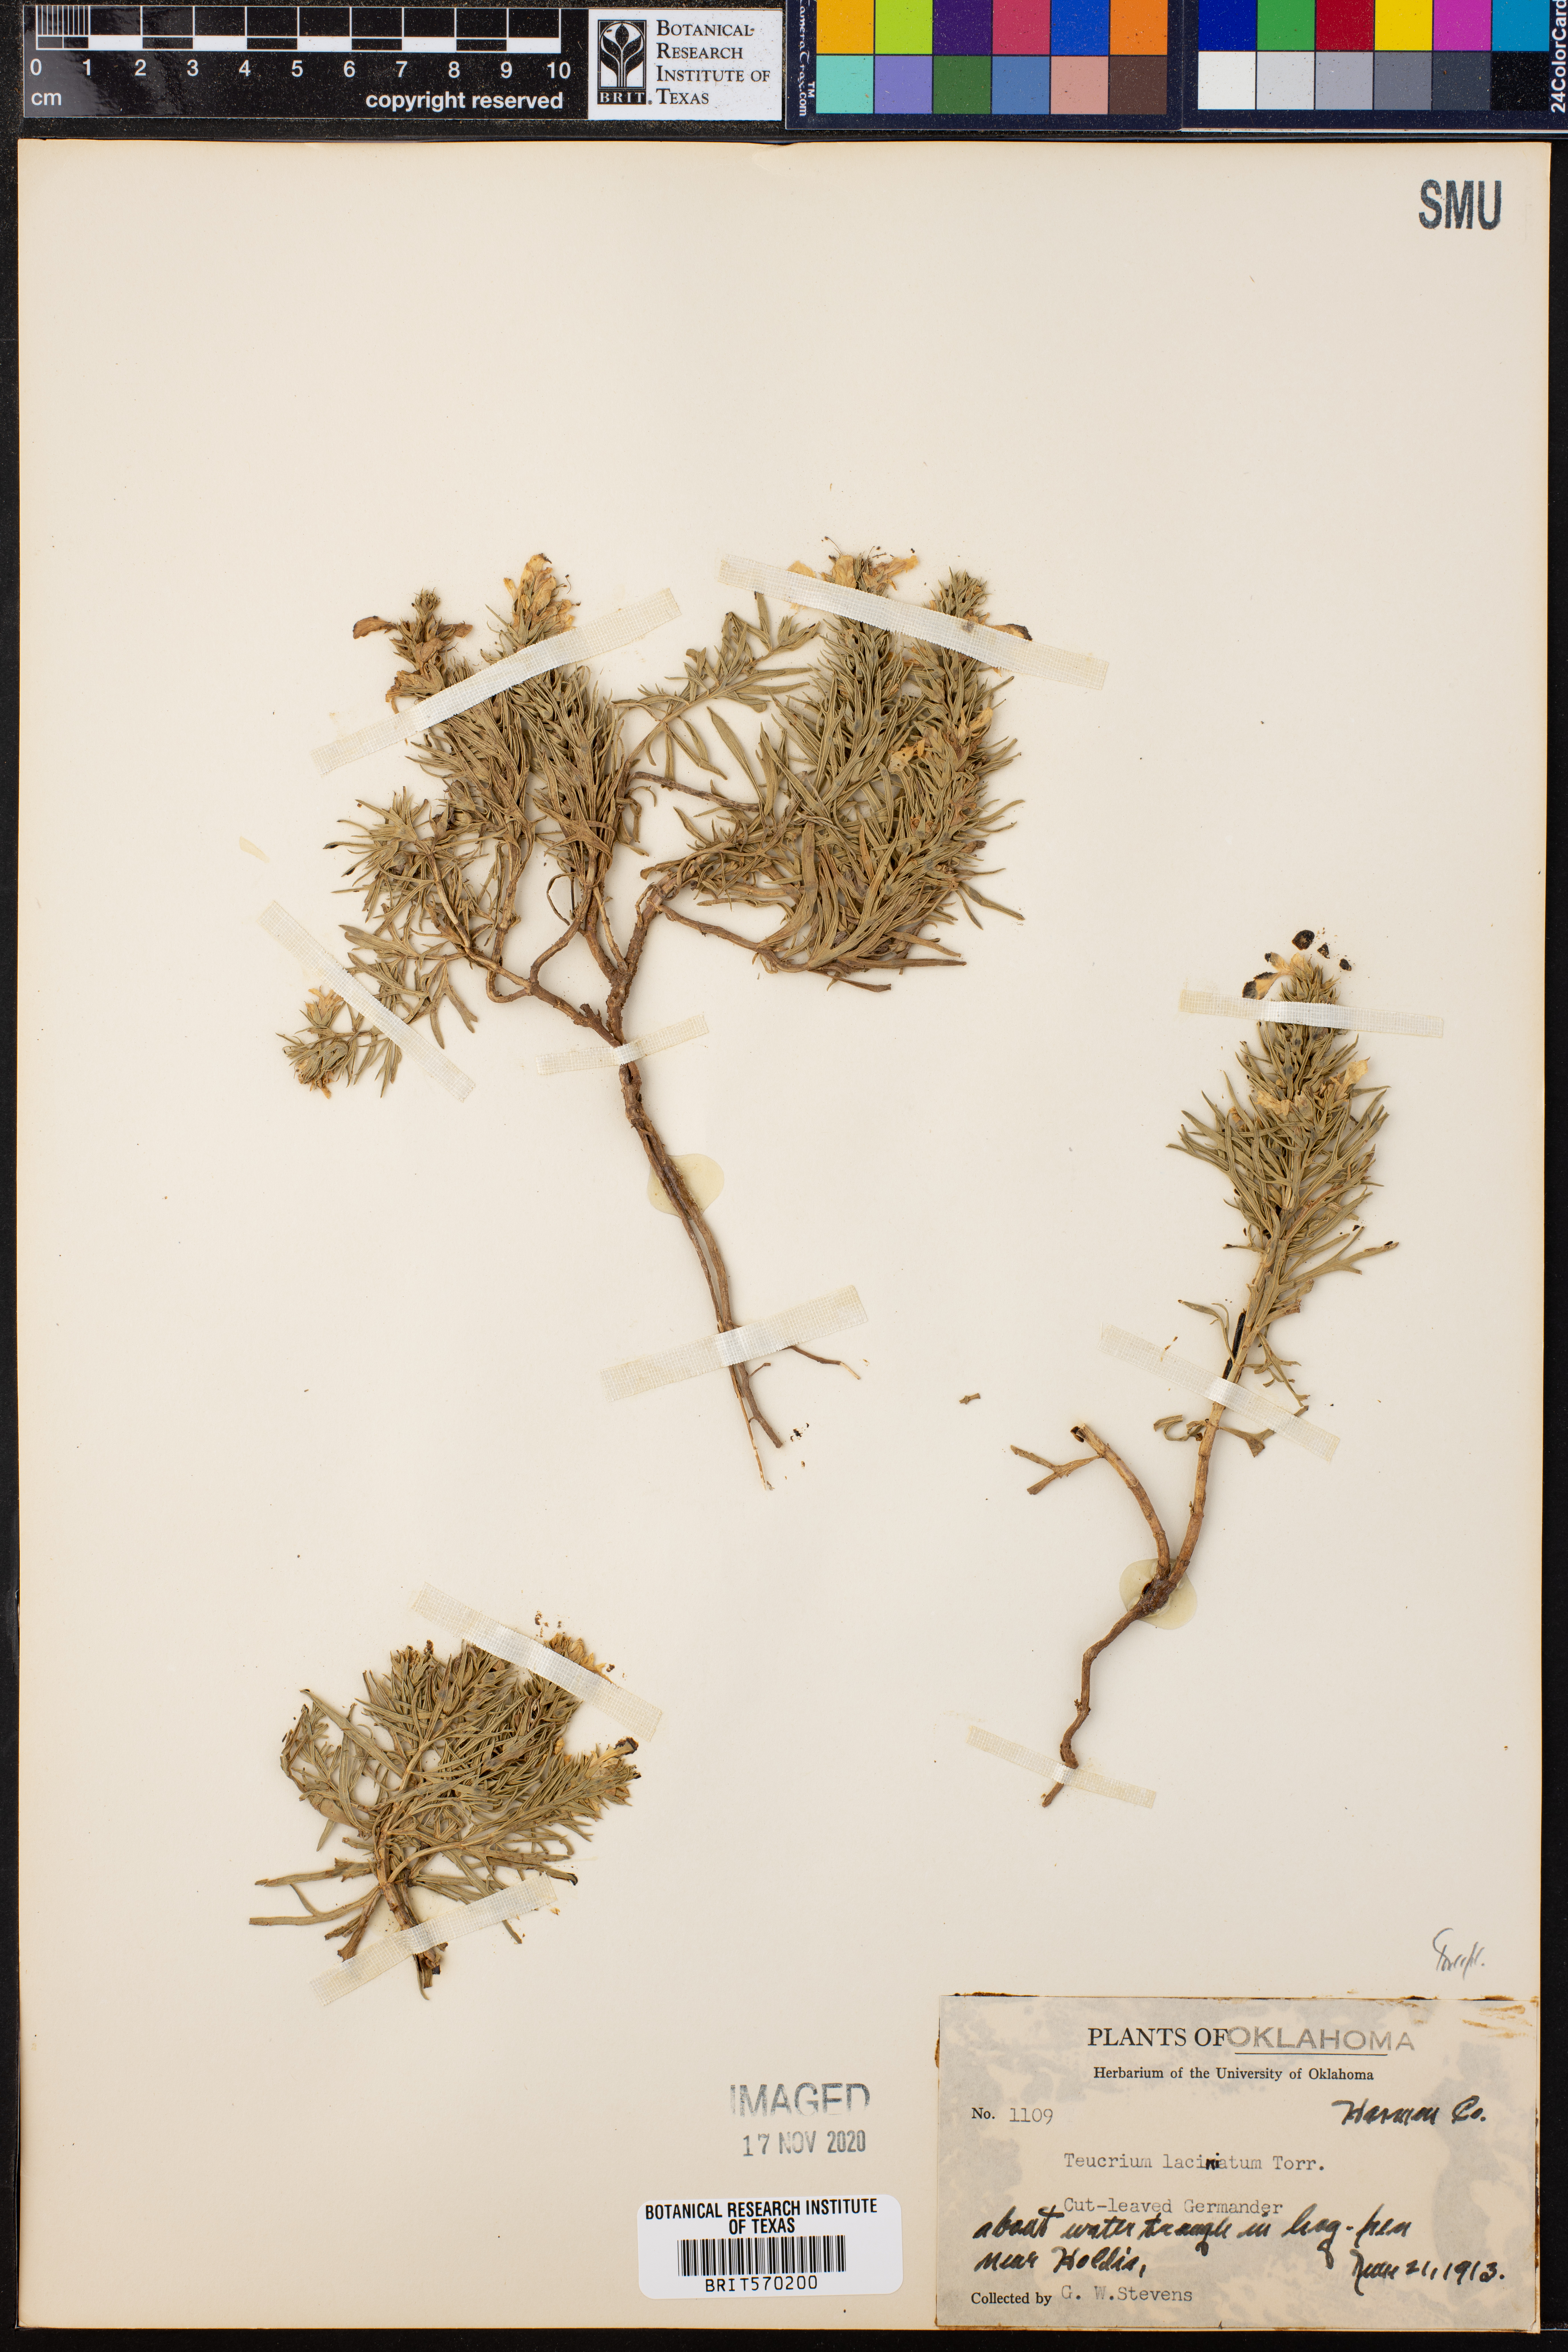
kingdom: Plantae
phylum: Tracheophyta
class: Magnoliopsida
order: Lamiales
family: Lamiaceae
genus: Teucrium
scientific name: Teucrium laciniatum
